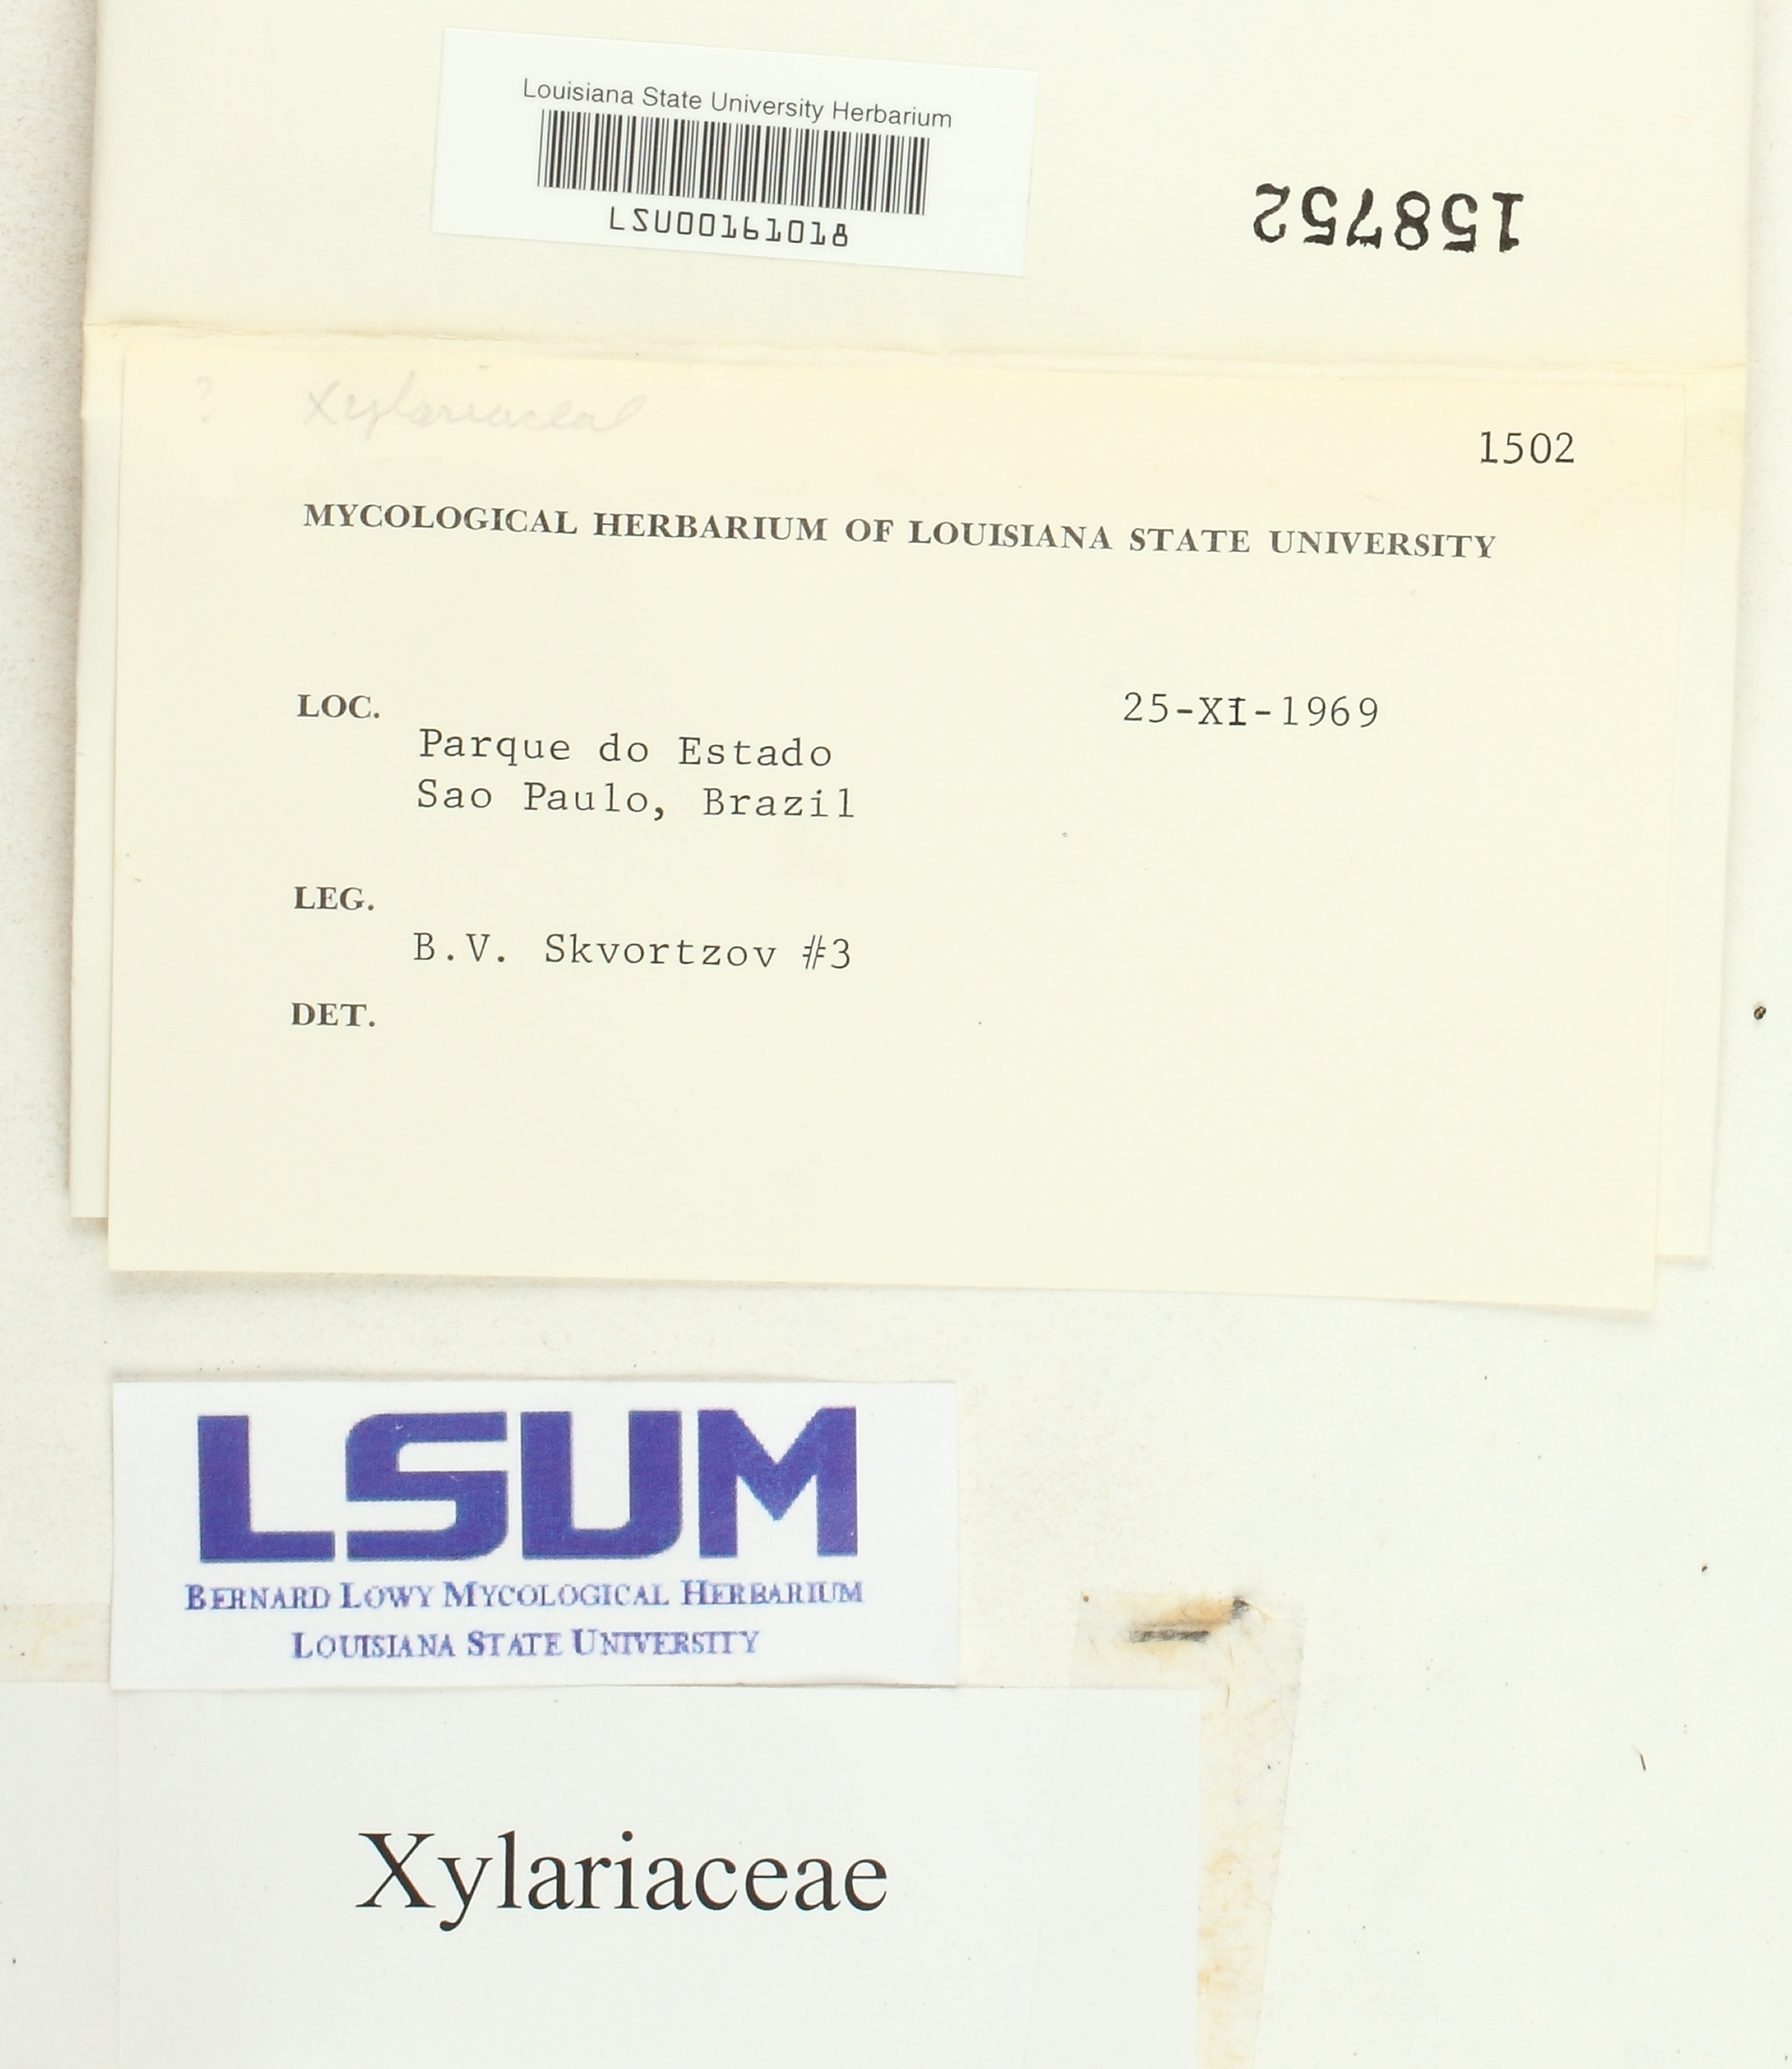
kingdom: Fungi
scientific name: Fungi
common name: Fungi
